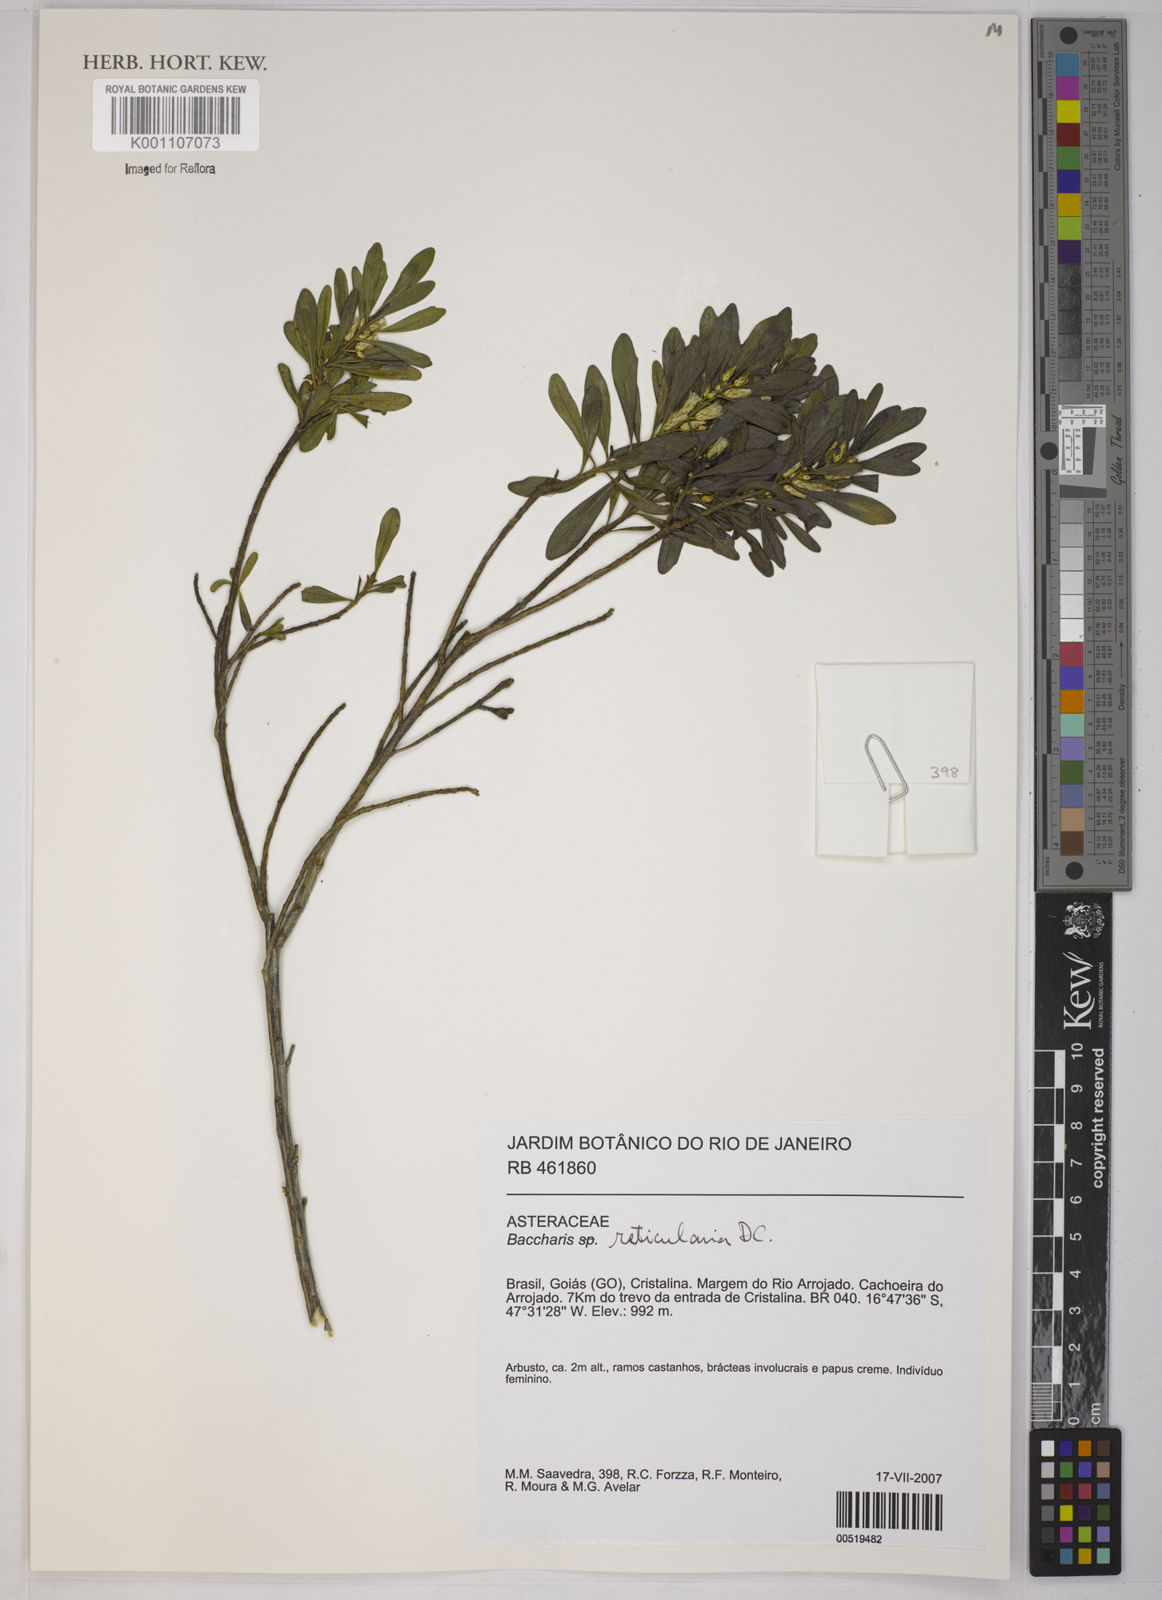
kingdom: Plantae
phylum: Tracheophyta
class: Magnoliopsida
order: Asterales
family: Asteraceae
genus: Baccharis
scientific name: Baccharis reticularia
